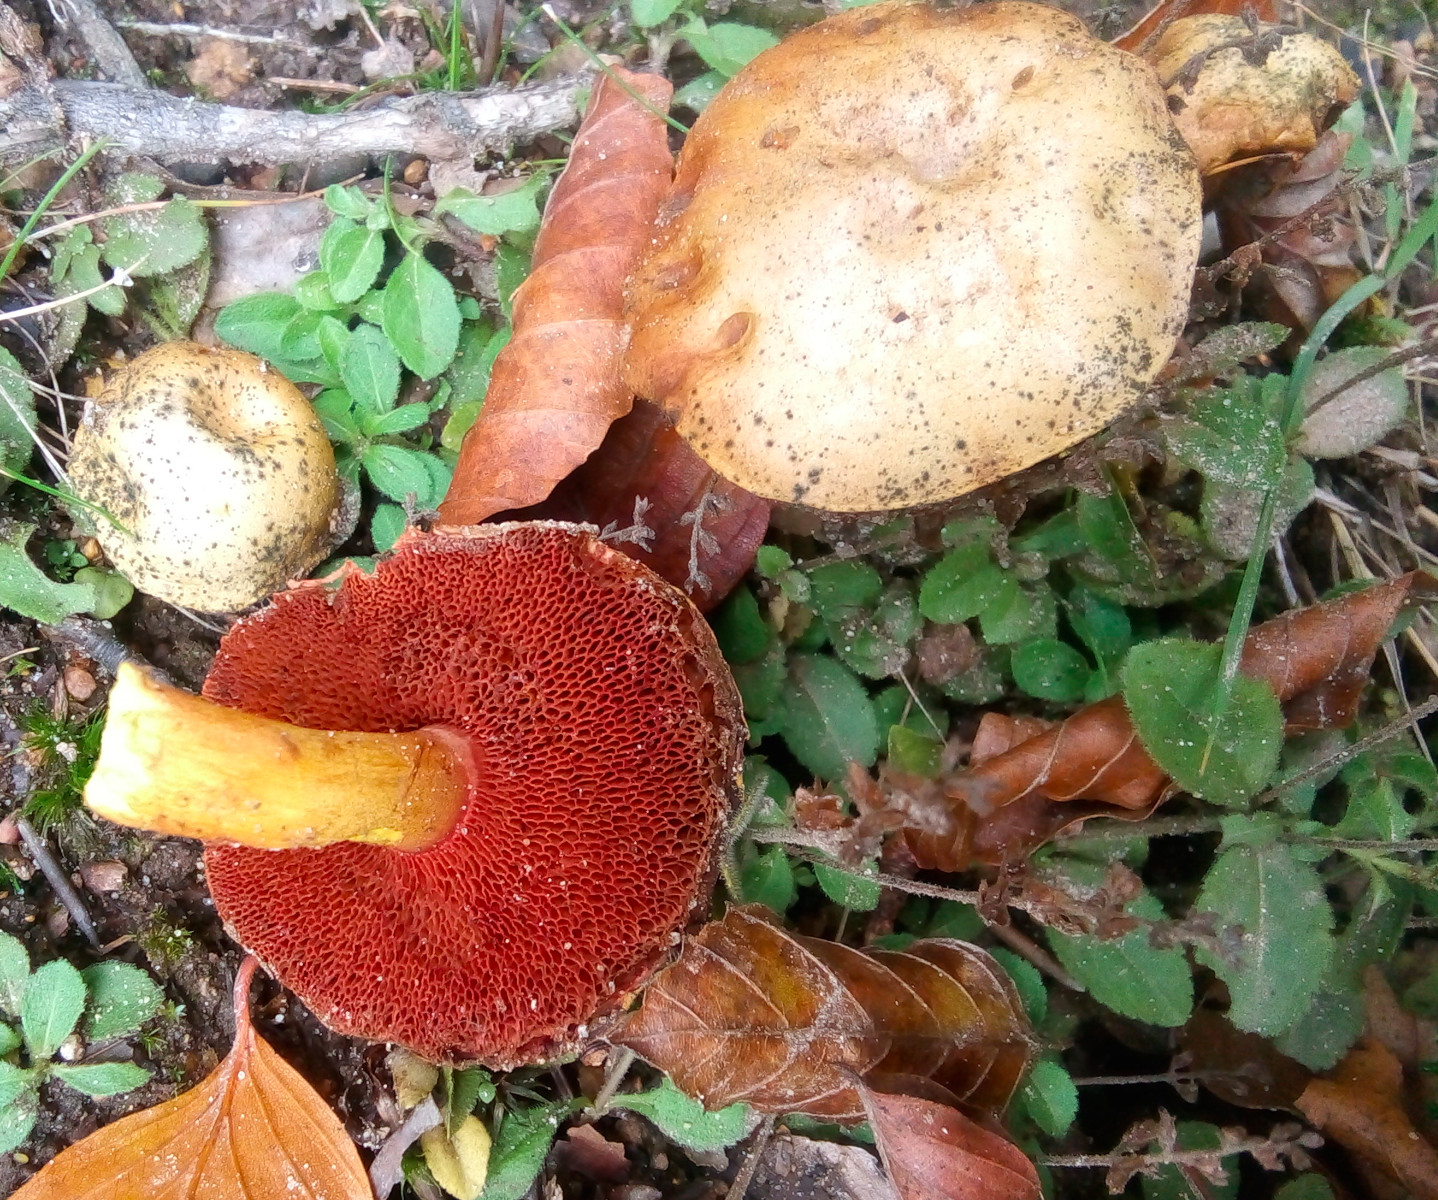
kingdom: Fungi
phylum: Basidiomycota
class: Agaricomycetes
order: Boletales
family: Boletaceae
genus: Chalciporus
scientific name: Chalciporus piperatus
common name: peberrørhat
